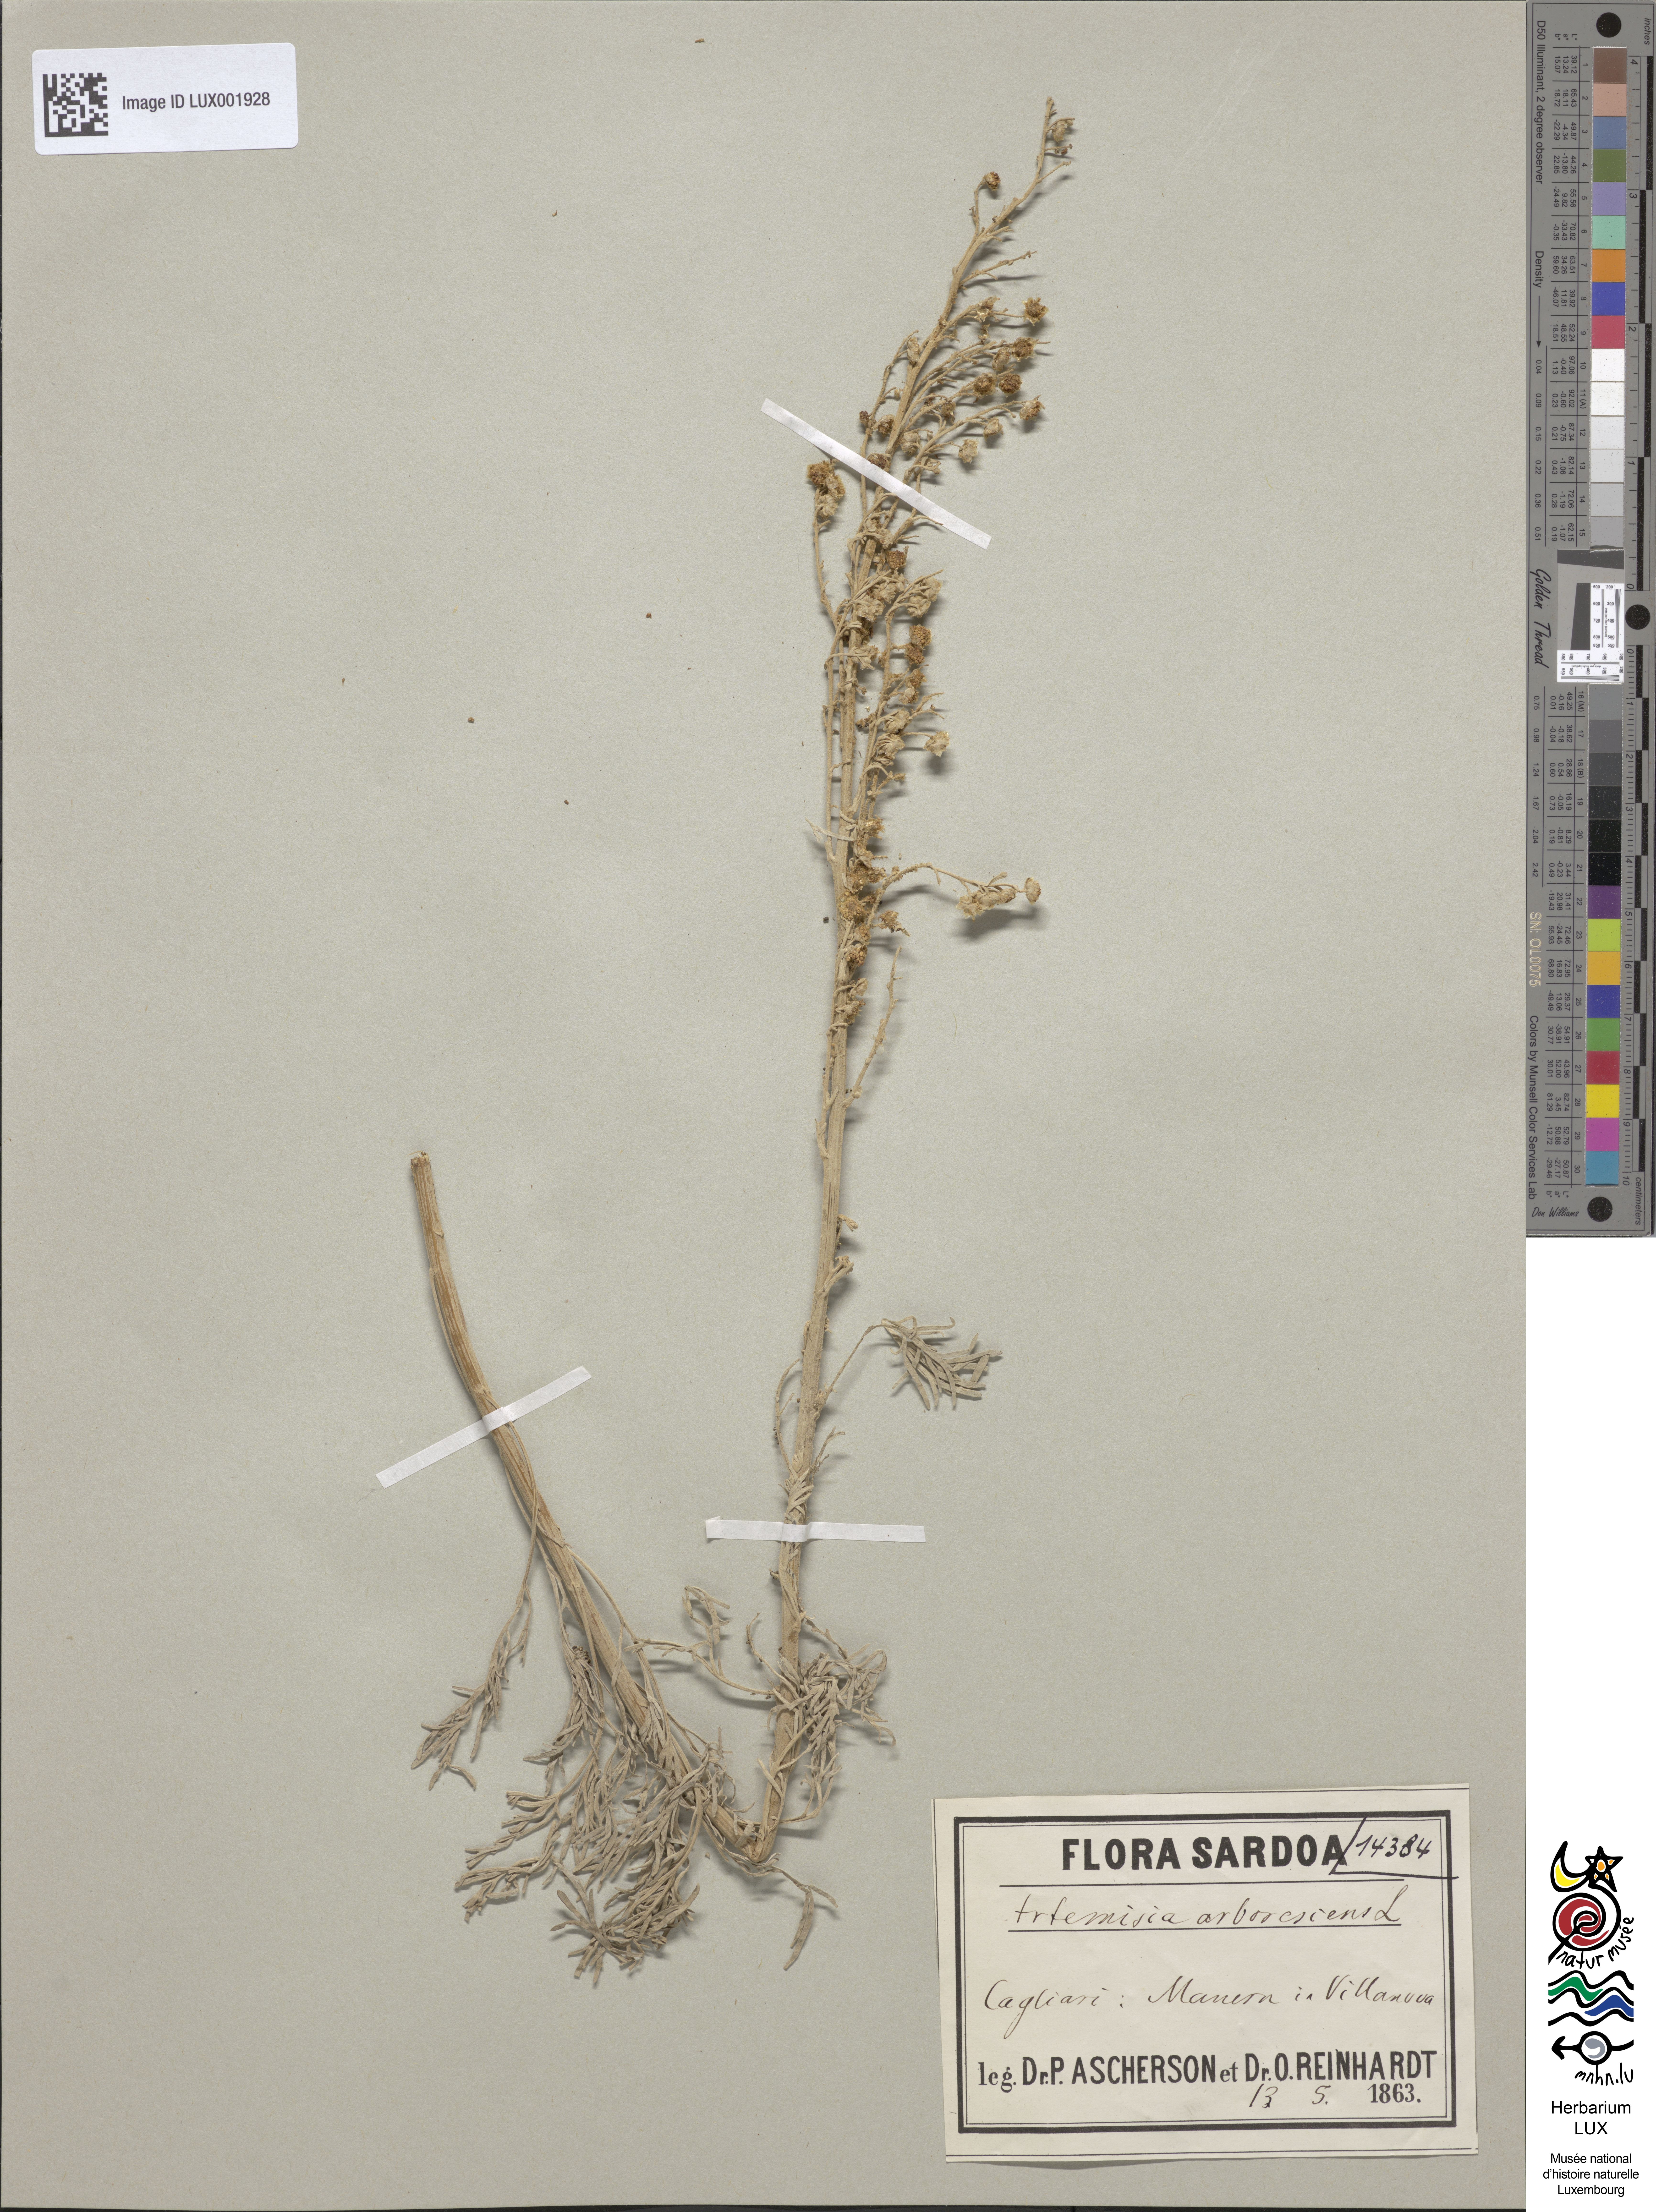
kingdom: Plantae
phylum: Tracheophyta
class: Magnoliopsida
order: Asterales
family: Asteraceae
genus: Artemisia
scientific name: Artemisia arborescens
